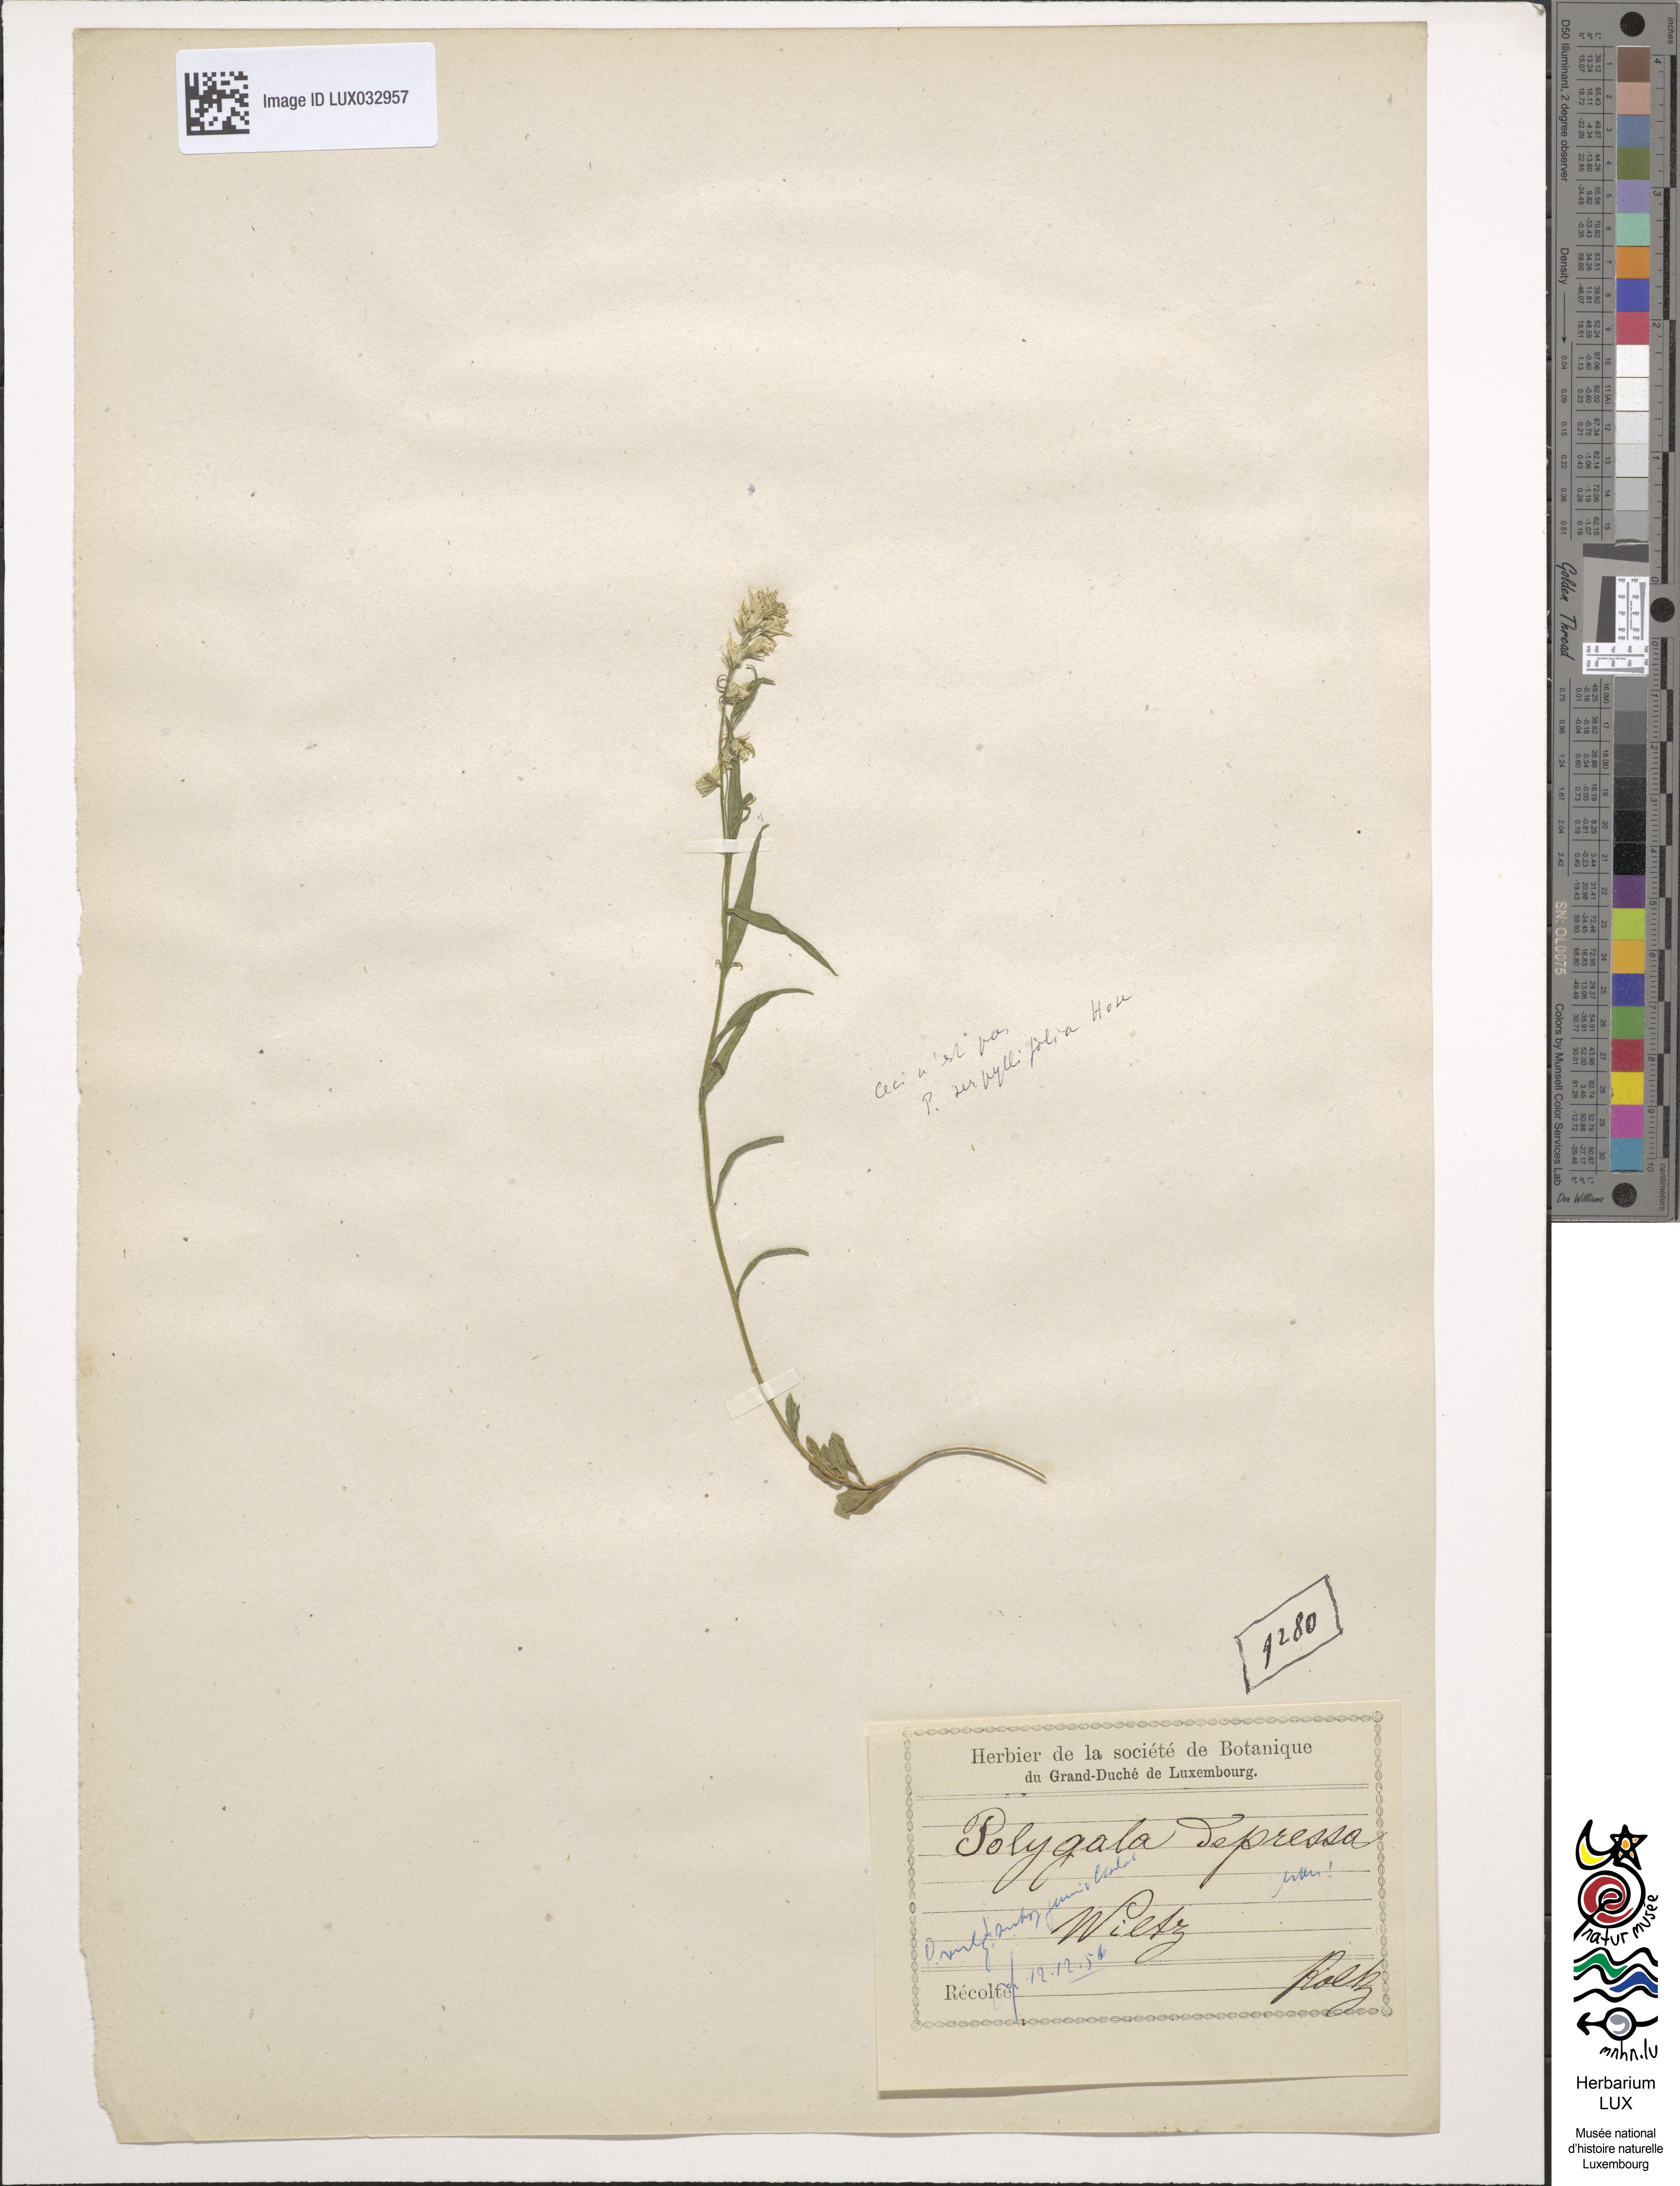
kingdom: Plantae
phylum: Tracheophyta
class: Magnoliopsida
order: Fabales
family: Polygalaceae
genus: Polygala
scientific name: Polygala serpyllifolia
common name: Heath milkwort
